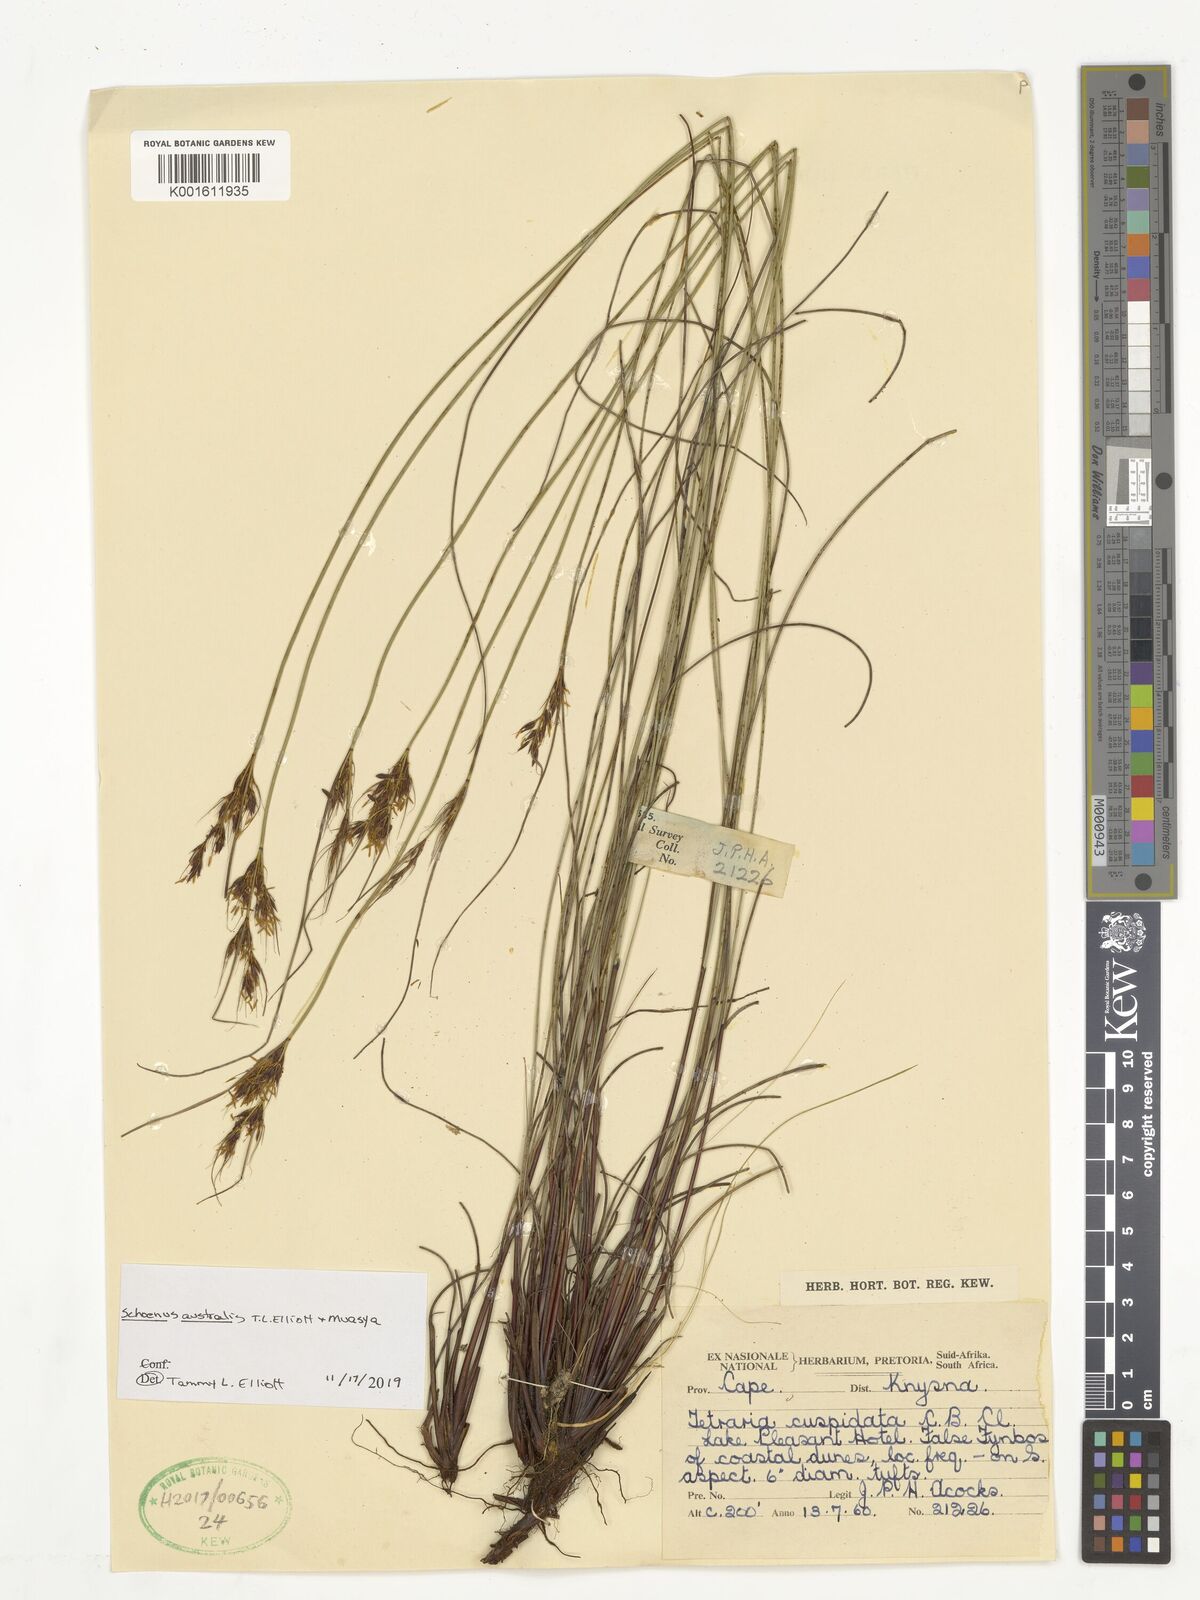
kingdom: Plantae
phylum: Tracheophyta
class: Liliopsida
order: Poales
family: Cyperaceae
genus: Schoenus
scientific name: Schoenus
